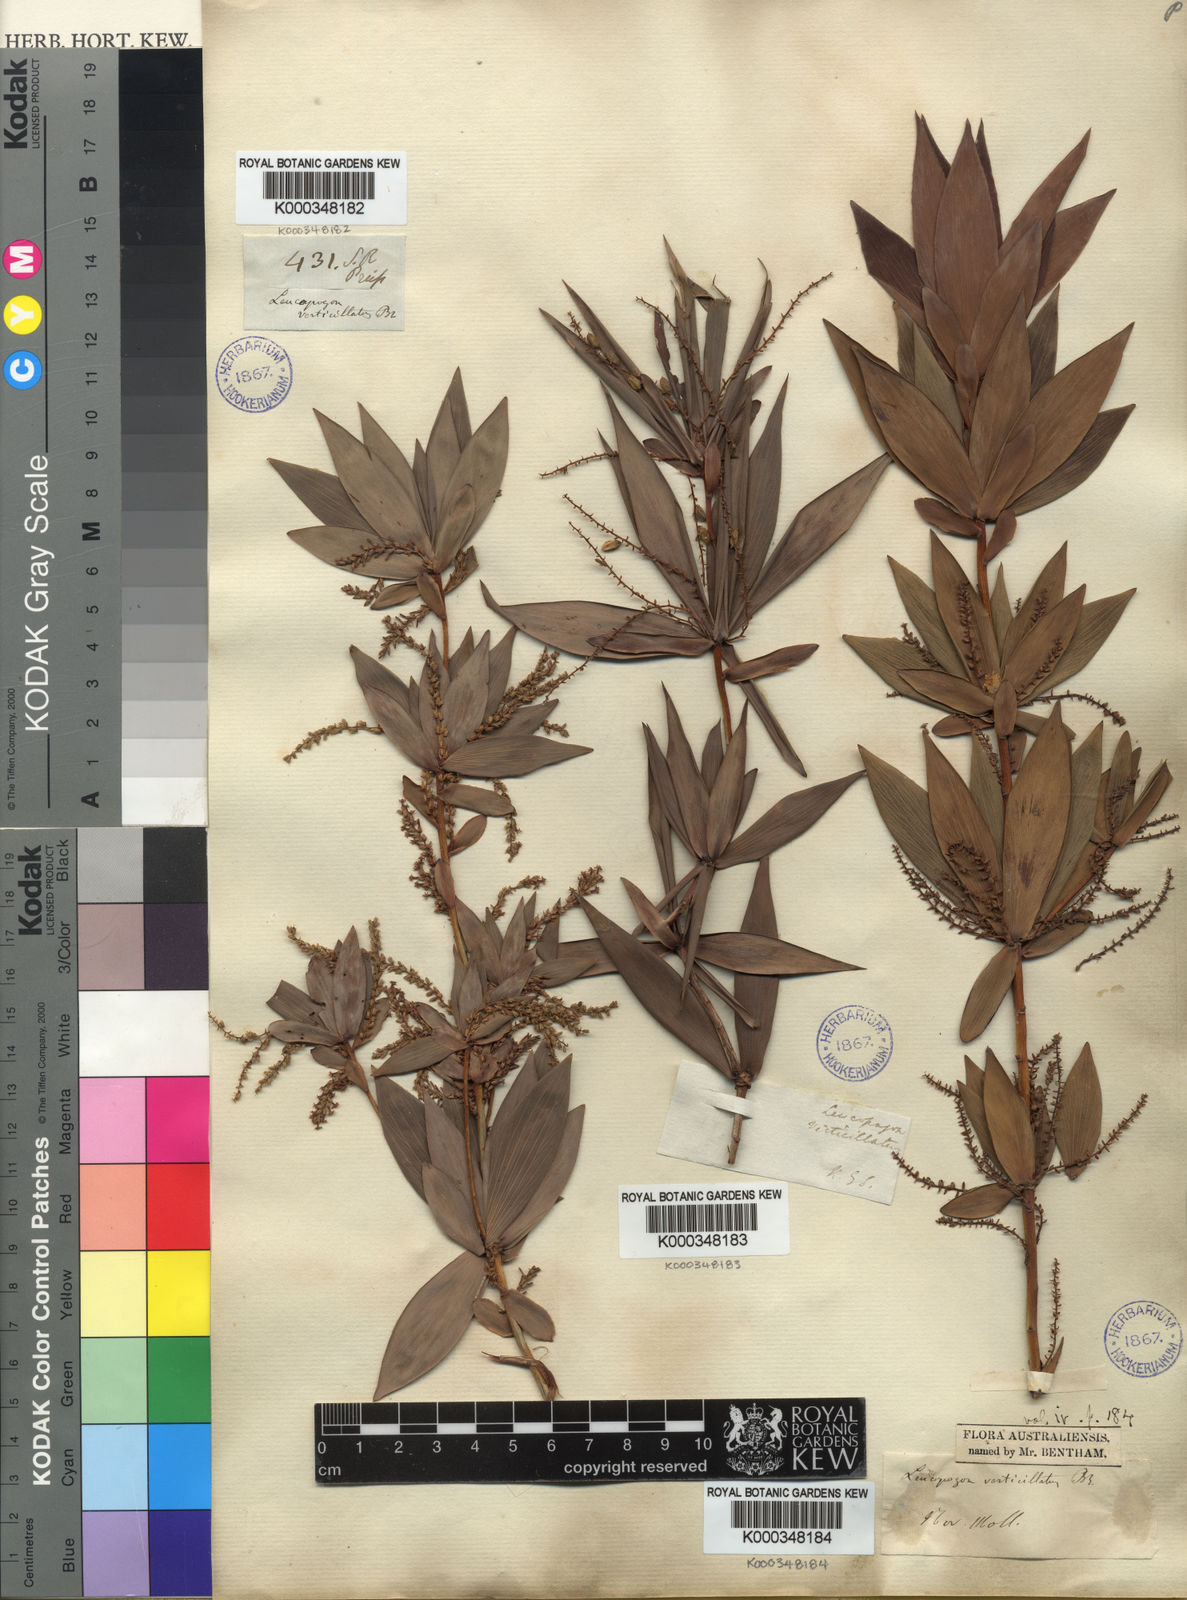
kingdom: Plantae
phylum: Tracheophyta
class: Magnoliopsida
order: Ericales
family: Ericaceae
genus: Leucopogon
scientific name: Leucopogon verticillatus
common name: Tasselshrub
